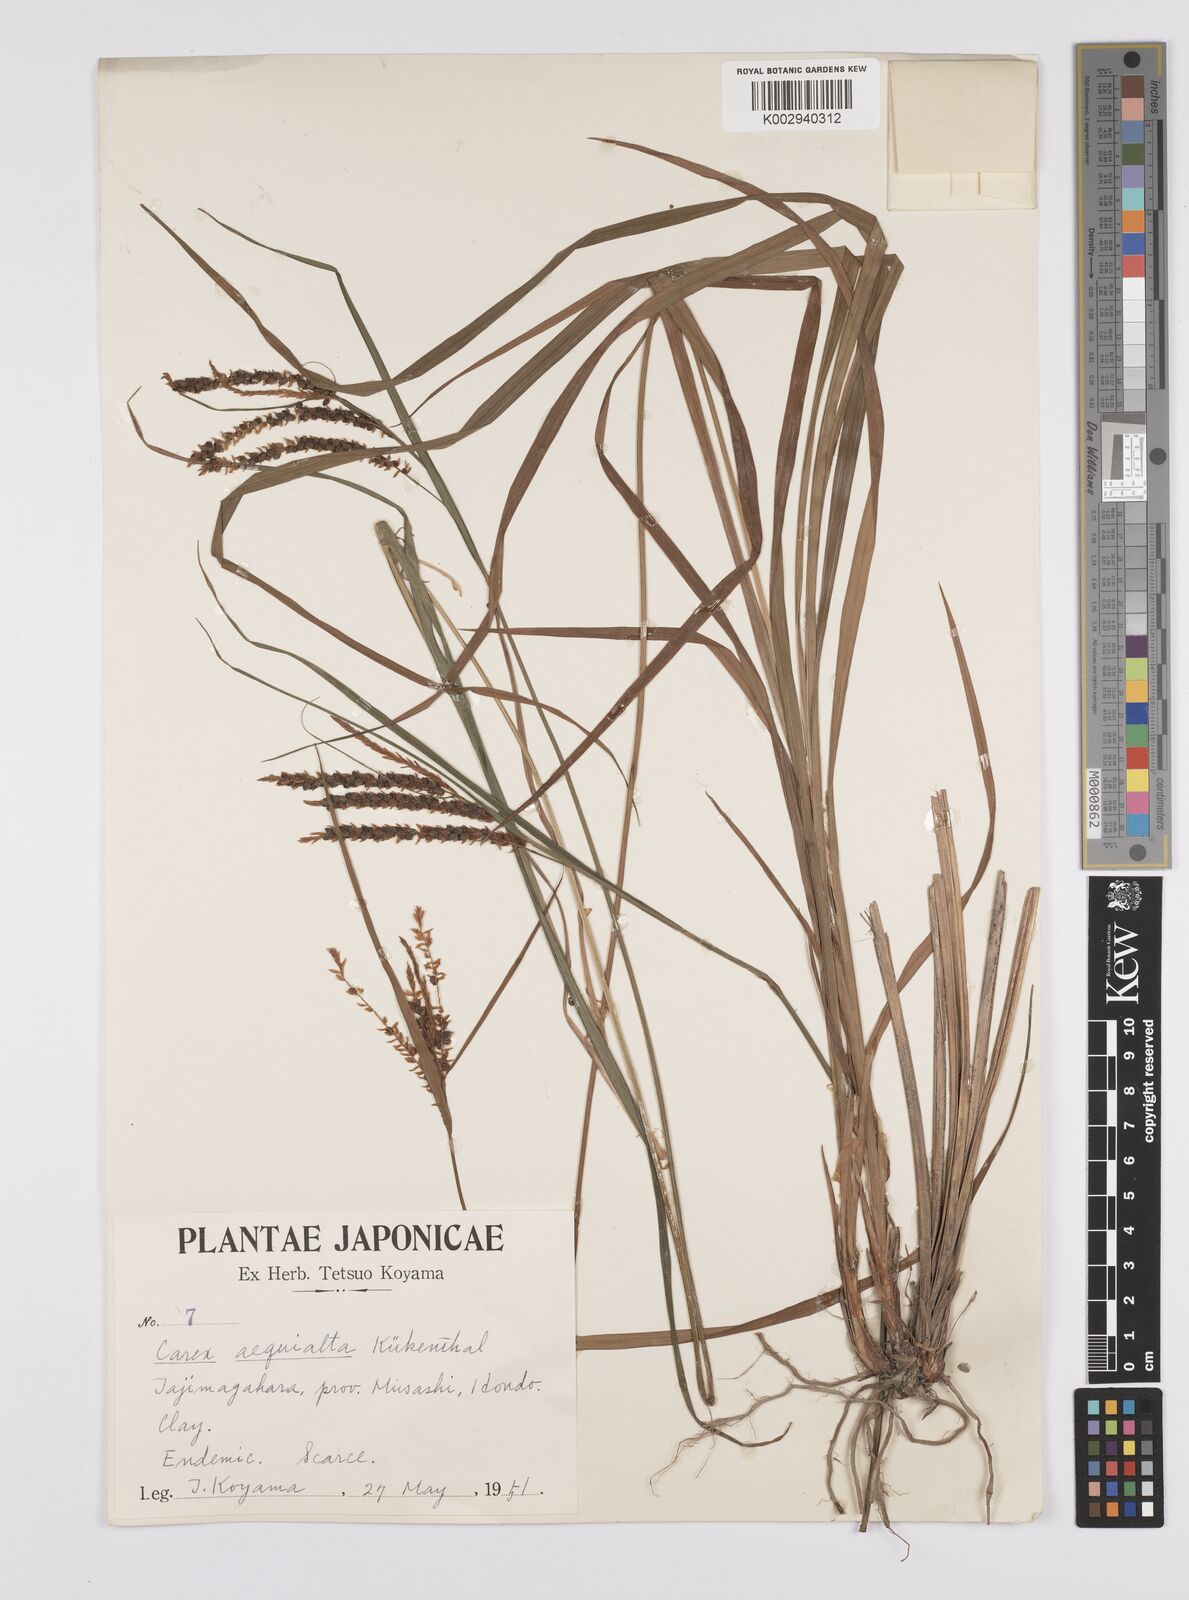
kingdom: Plantae
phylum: Tracheophyta
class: Liliopsida
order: Poales
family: Cyperaceae
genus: Carex
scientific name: Carex aequialta
